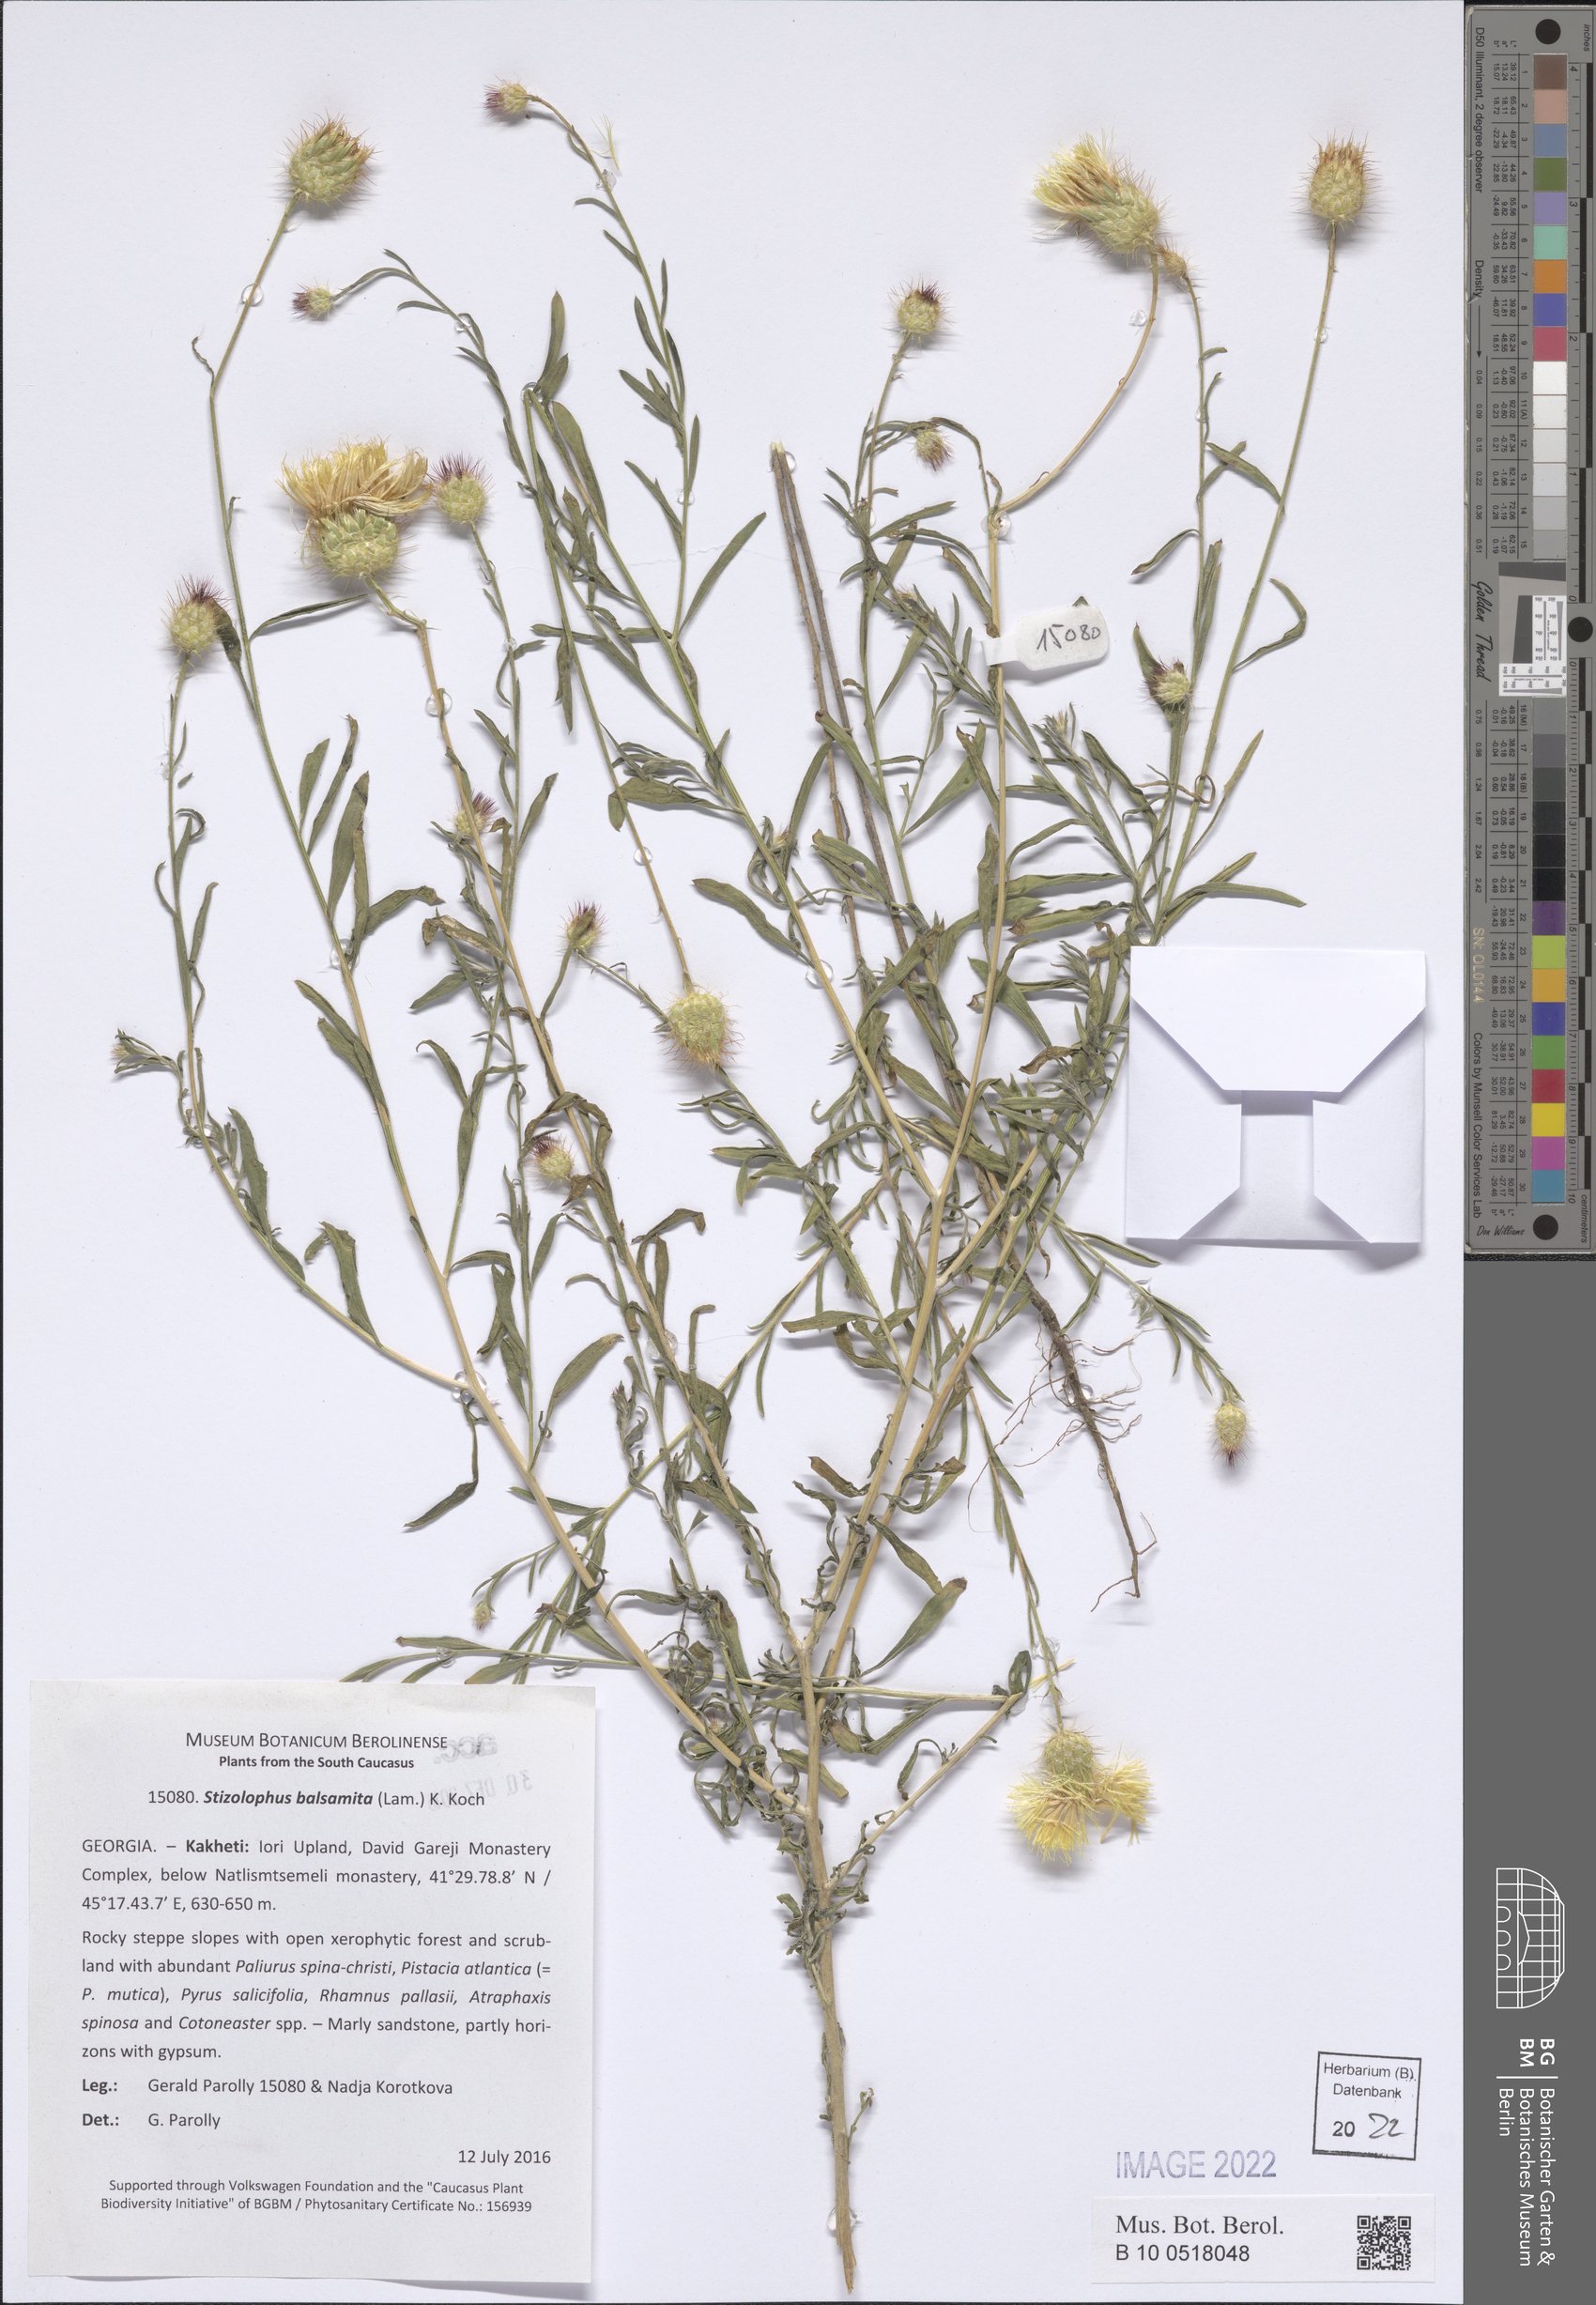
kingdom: Plantae
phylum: Tracheophyta
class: Magnoliopsida
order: Asterales
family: Asteraceae
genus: Stizolophus
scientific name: Stizolophus balsamita
